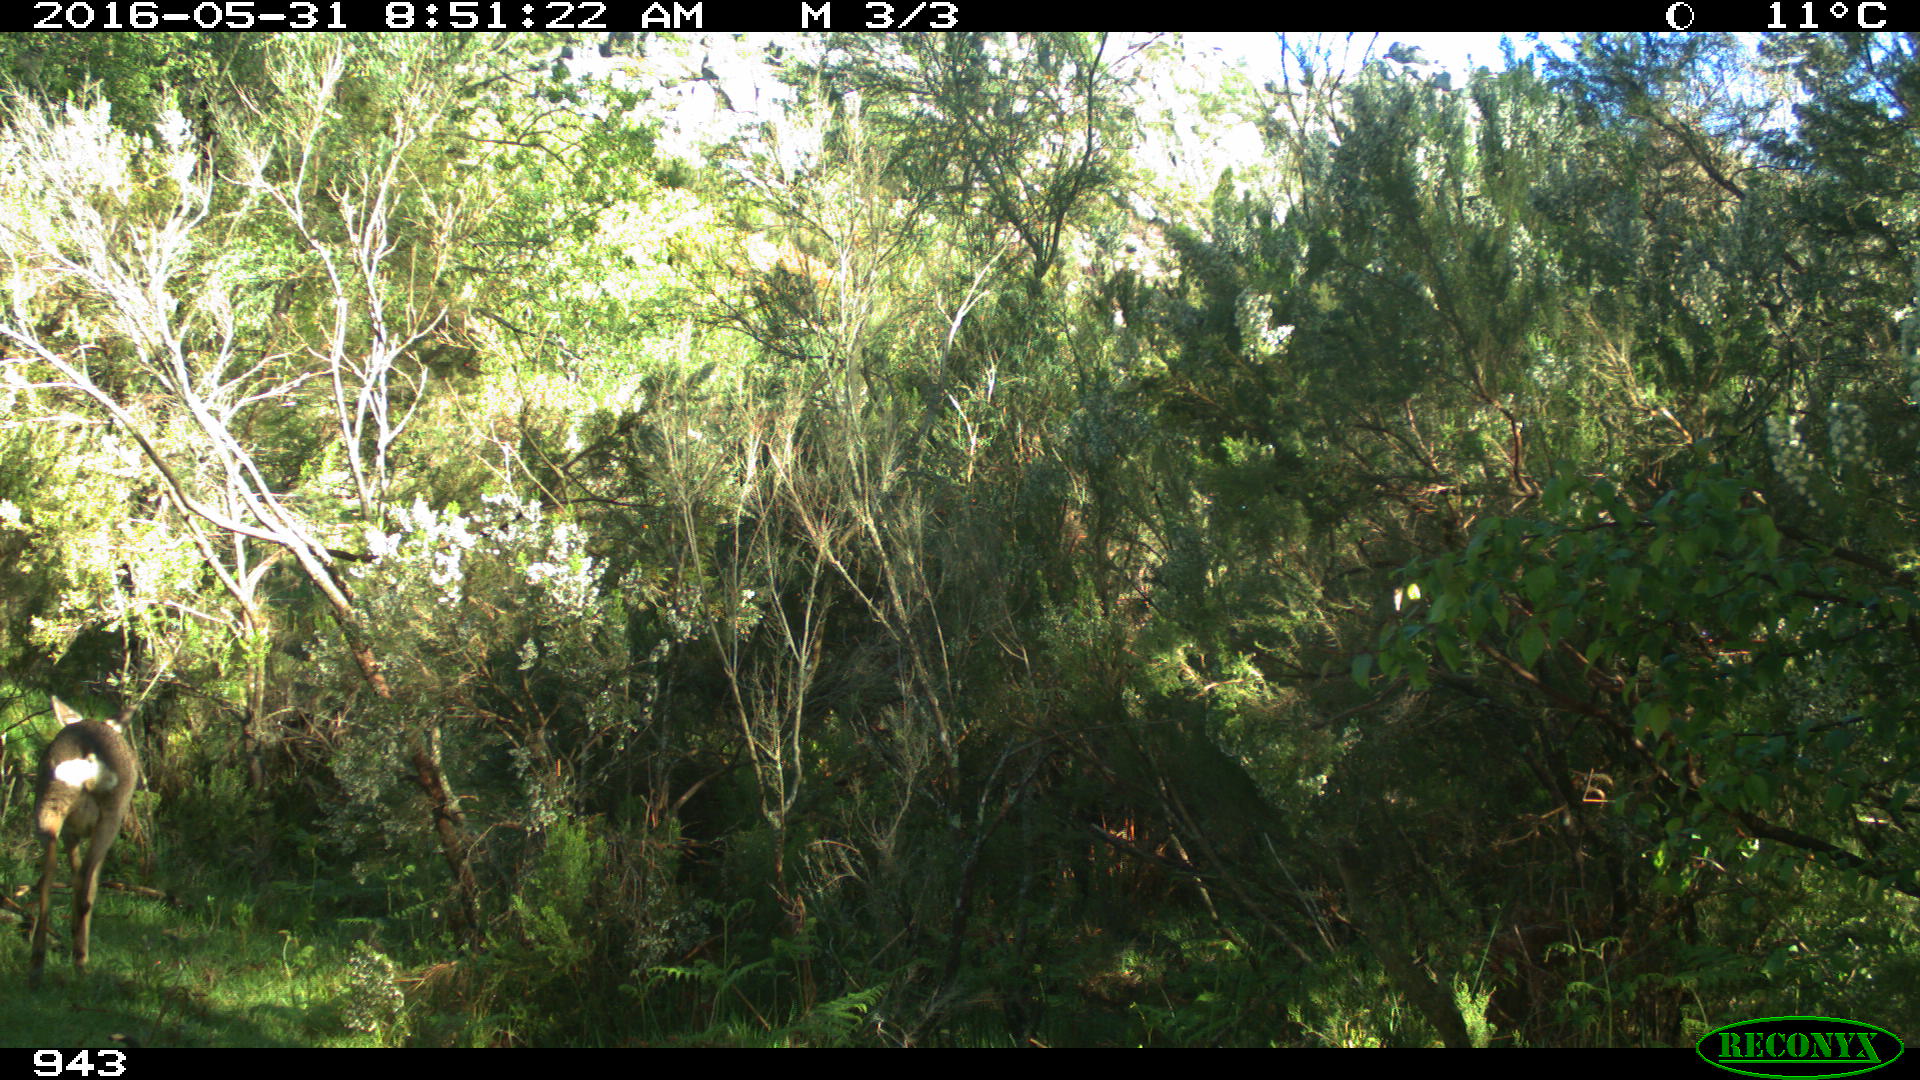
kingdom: Animalia
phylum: Chordata
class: Mammalia
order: Artiodactyla
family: Cervidae
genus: Capreolus
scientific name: Capreolus capreolus
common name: Western roe deer
